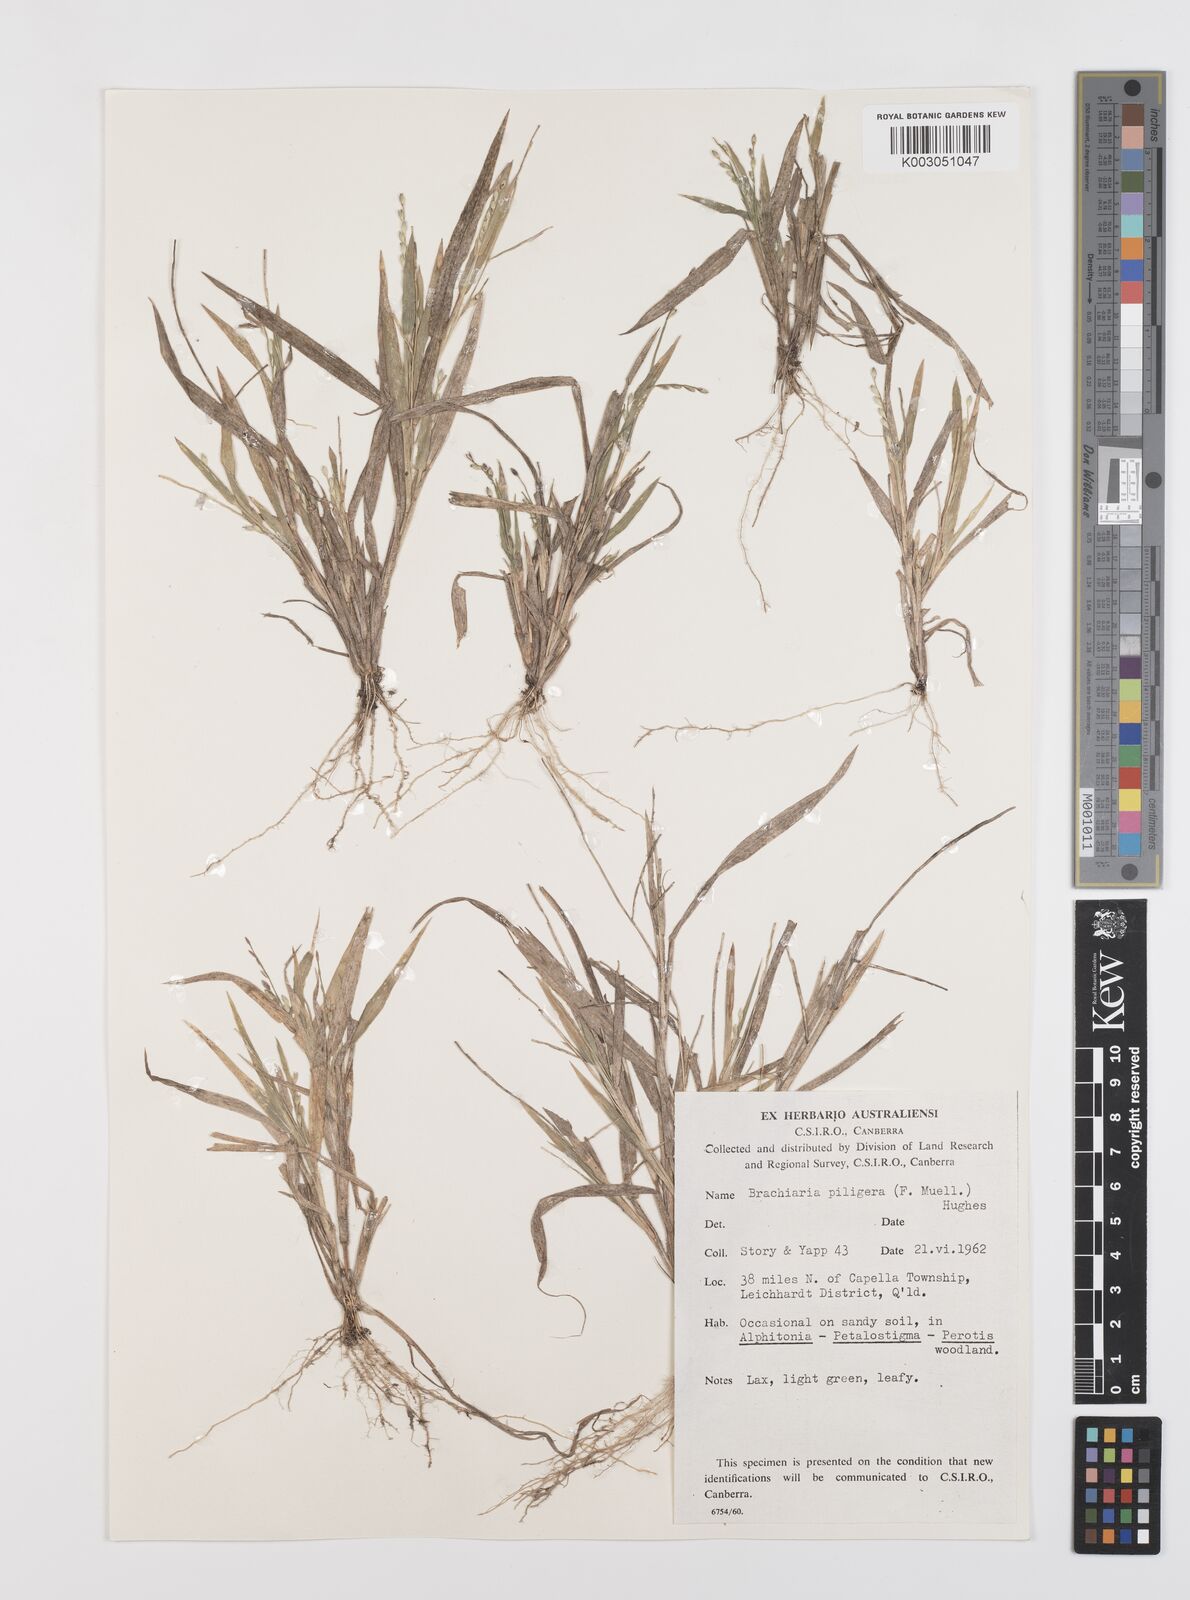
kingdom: Plantae
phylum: Tracheophyta
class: Liliopsida
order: Poales
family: Poaceae
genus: Urochloa
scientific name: Urochloa piligera
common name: Wattle signalgrass
